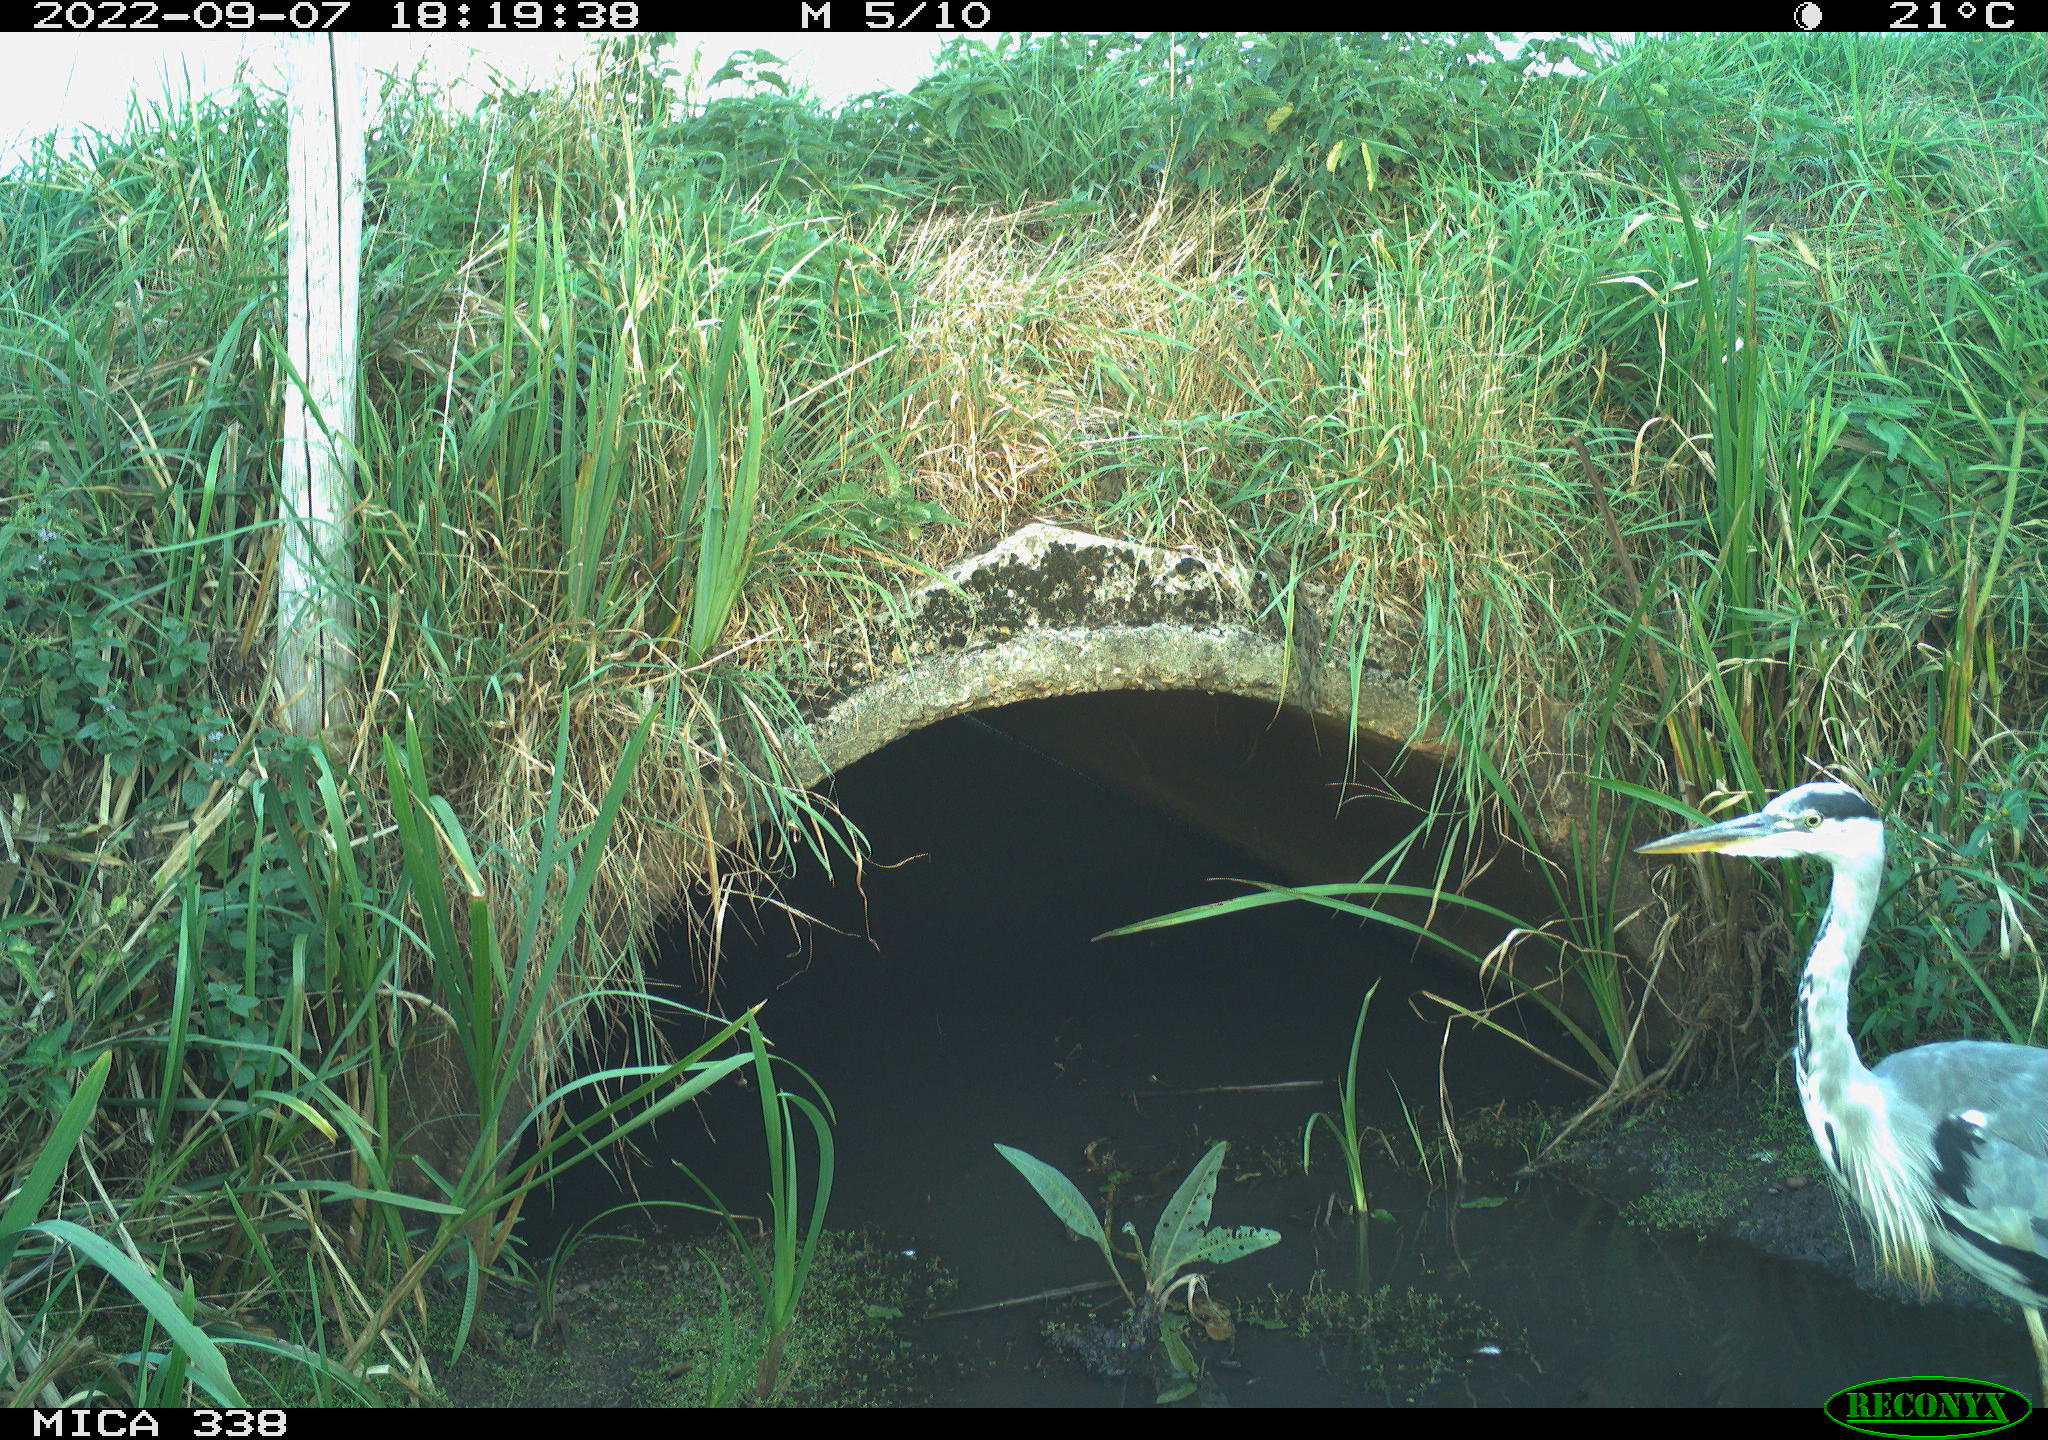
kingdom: Animalia
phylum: Chordata
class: Aves
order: Pelecaniformes
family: Ardeidae
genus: Ardea
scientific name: Ardea cinerea
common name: Grey heron
